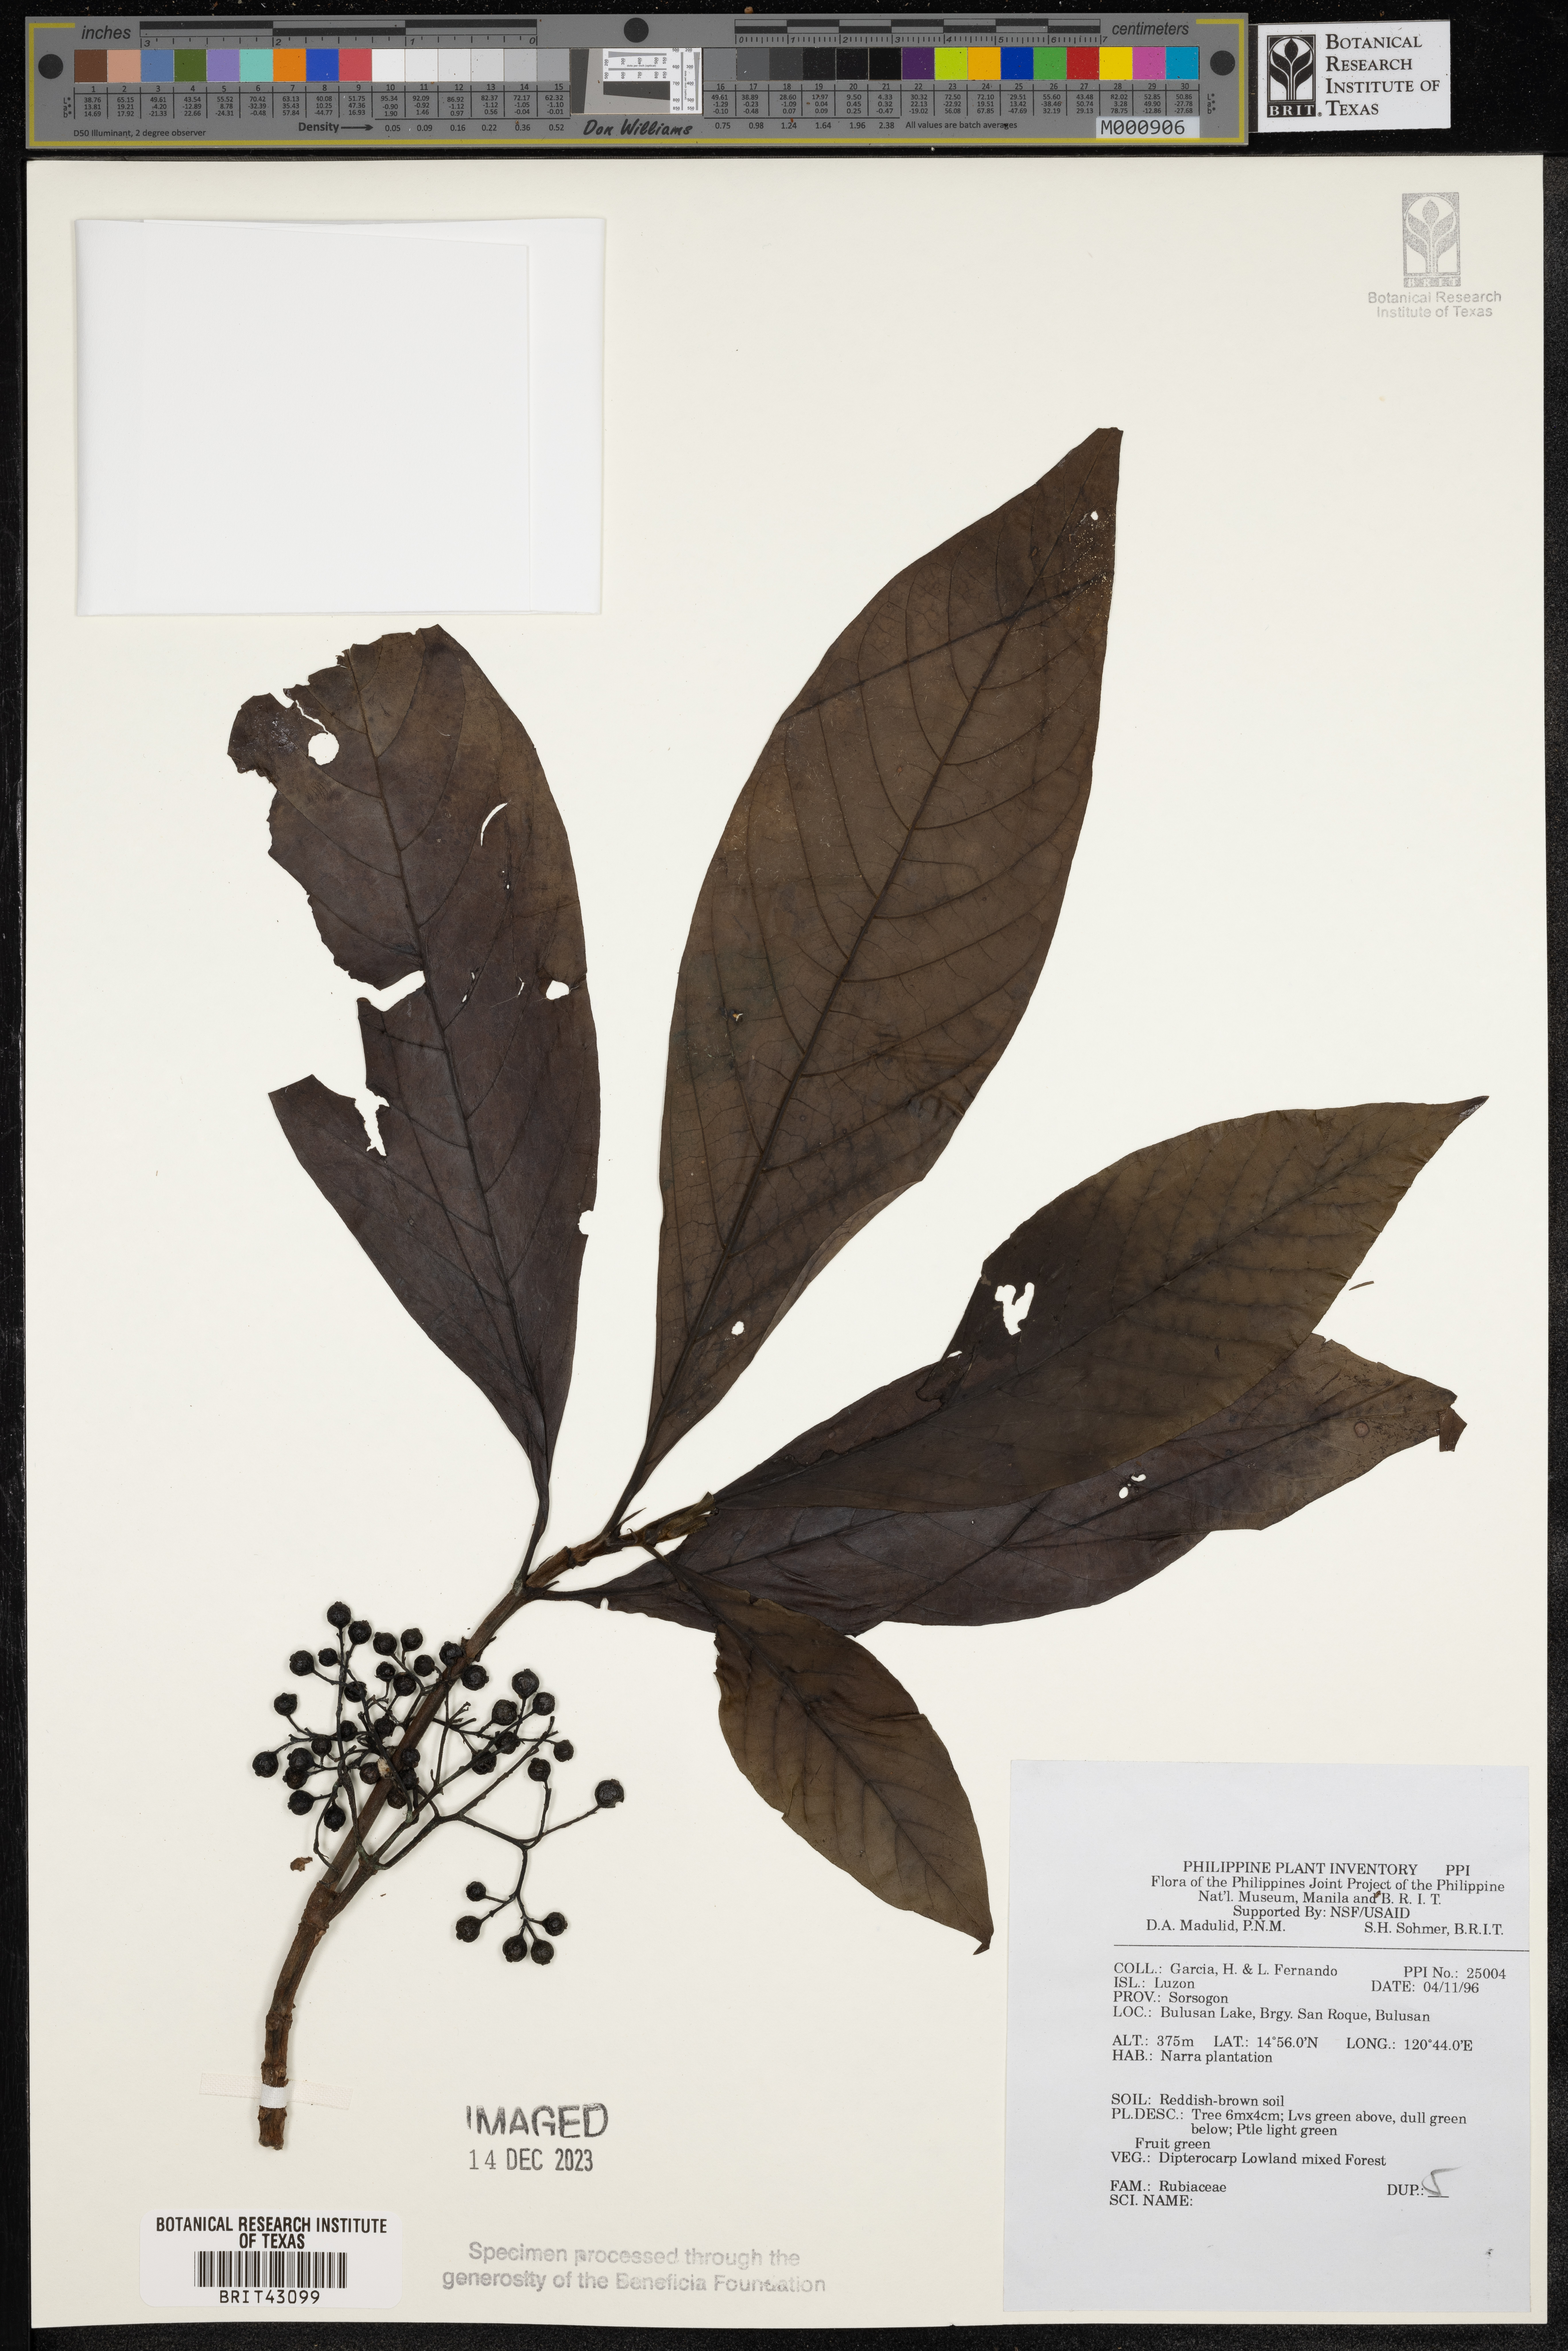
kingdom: Plantae
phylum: Tracheophyta
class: Magnoliopsida
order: Gentianales
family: Rubiaceae
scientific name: Rubiaceae
